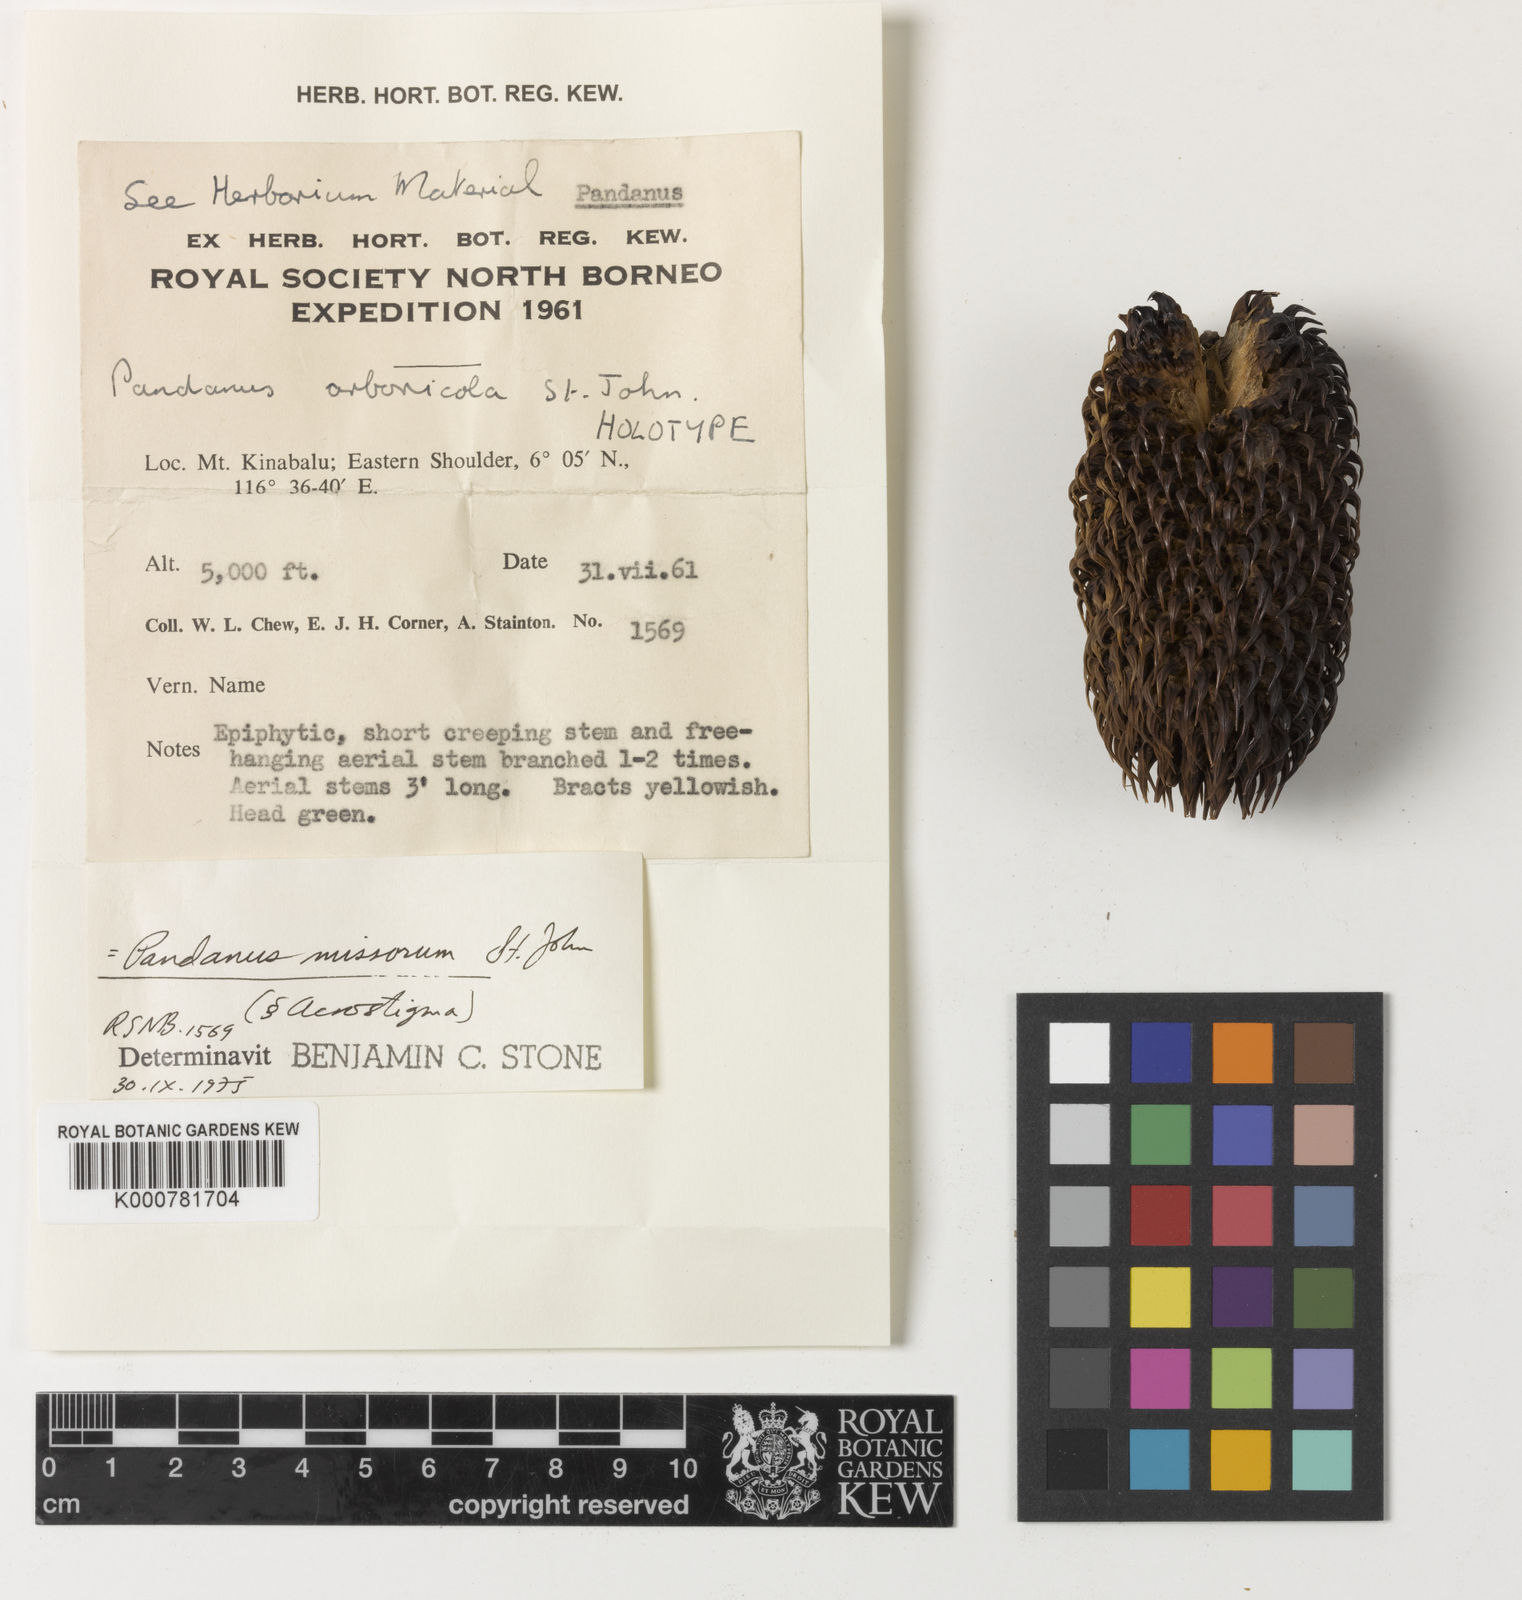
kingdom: Plantae
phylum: Tracheophyta
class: Liliopsida
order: Pandanales
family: Pandanaceae
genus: Benstonea
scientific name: Benstonea rustica
